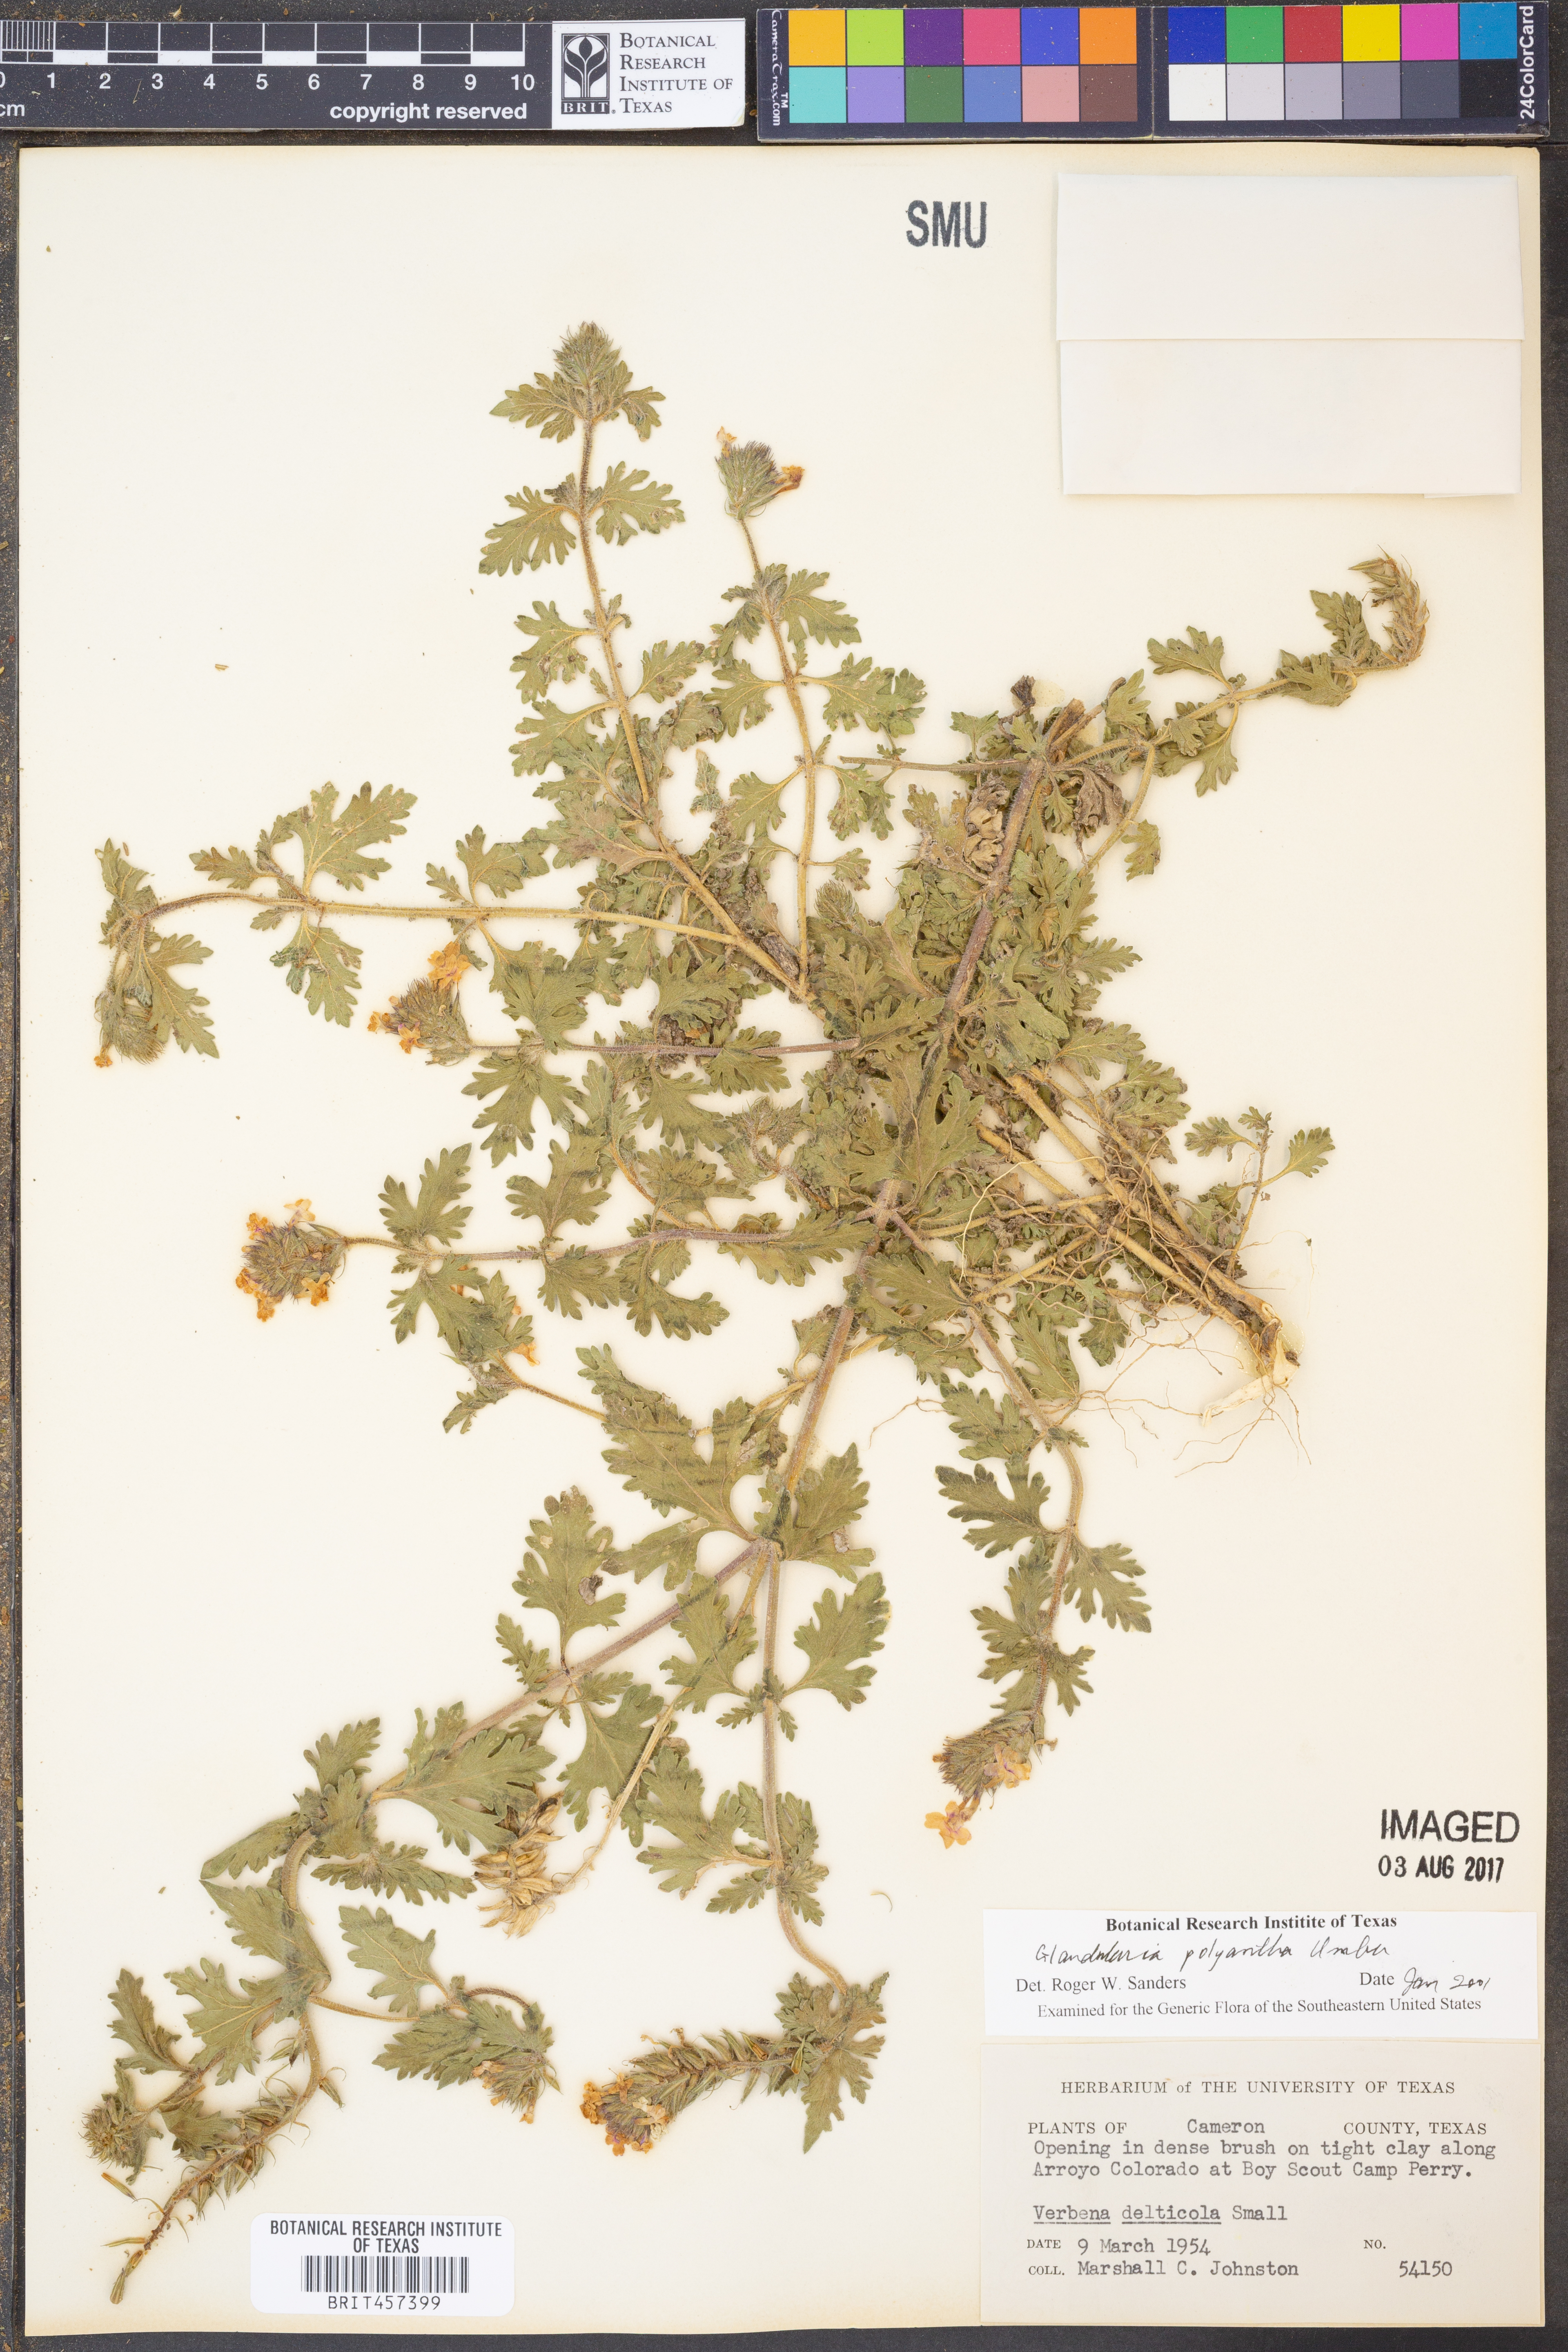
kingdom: Plantae
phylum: Tracheophyta
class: Magnoliopsida
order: Lamiales
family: Verbenaceae
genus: Verbena
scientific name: Verbena polyantha
